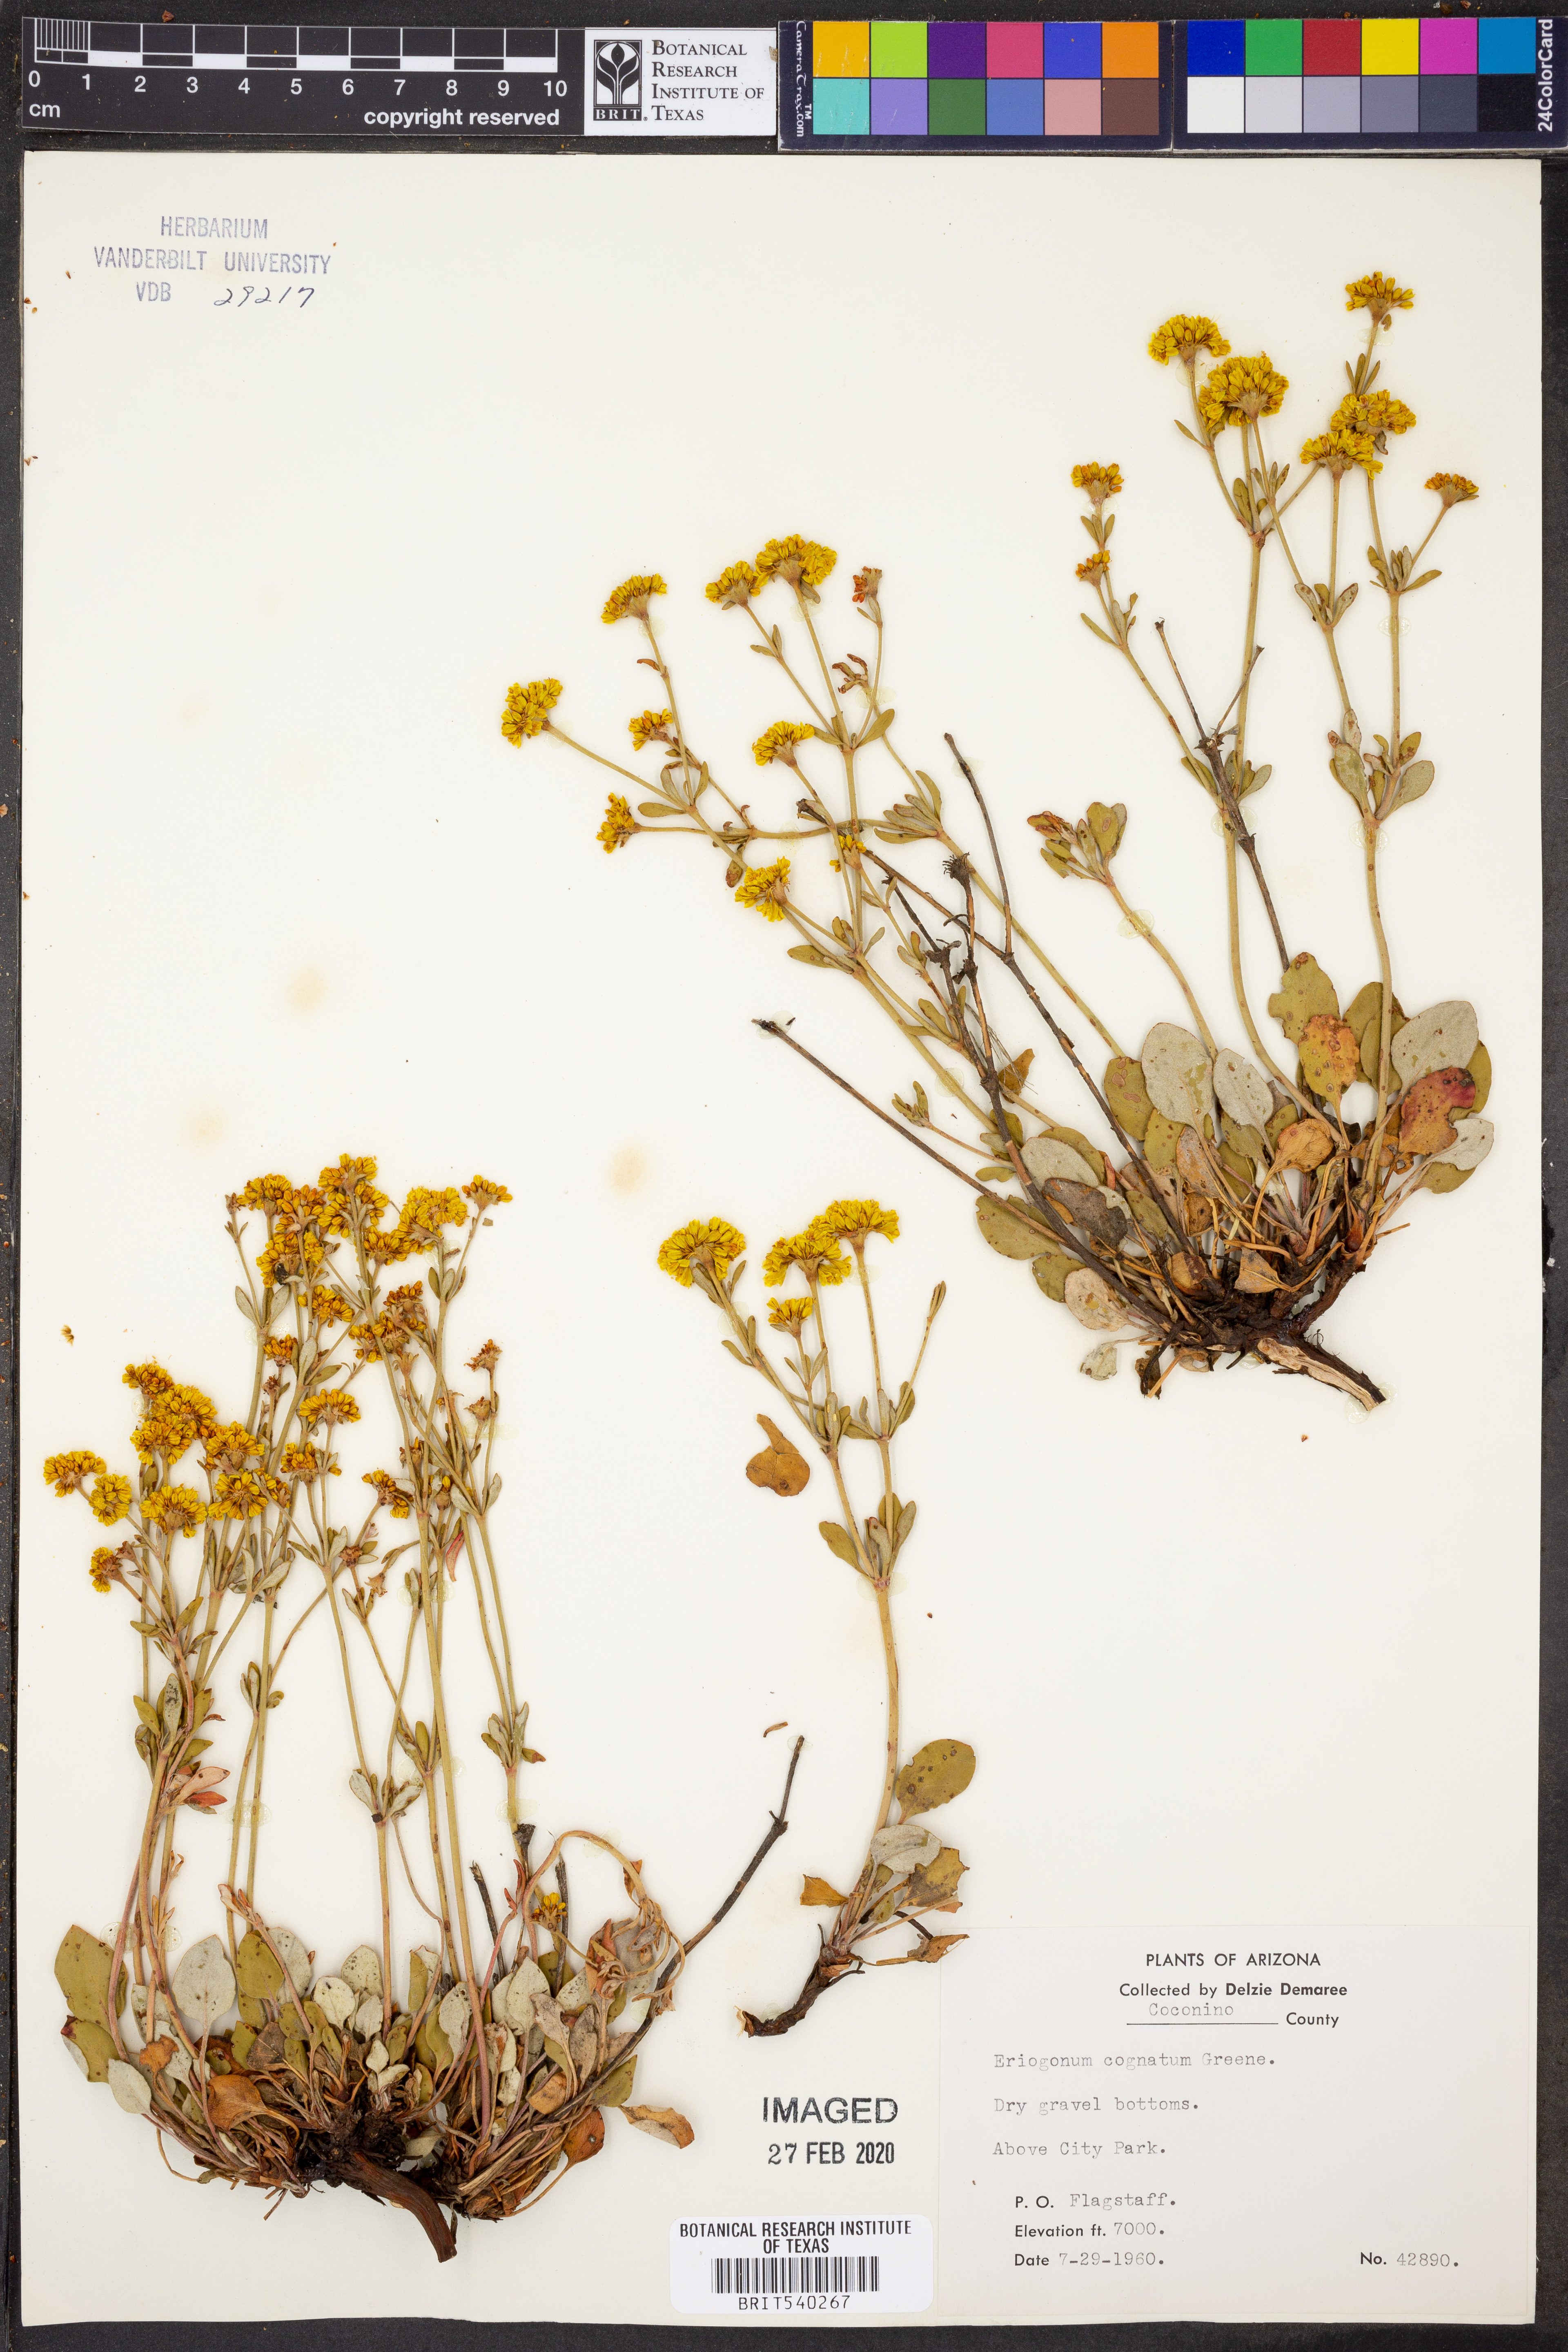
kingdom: Plantae
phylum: Tracheophyta
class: Magnoliopsida
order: Caryophyllales
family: Polygonaceae
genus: Eriogonum
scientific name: Eriogonum umbellatum
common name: Sulfur-buckwheat
